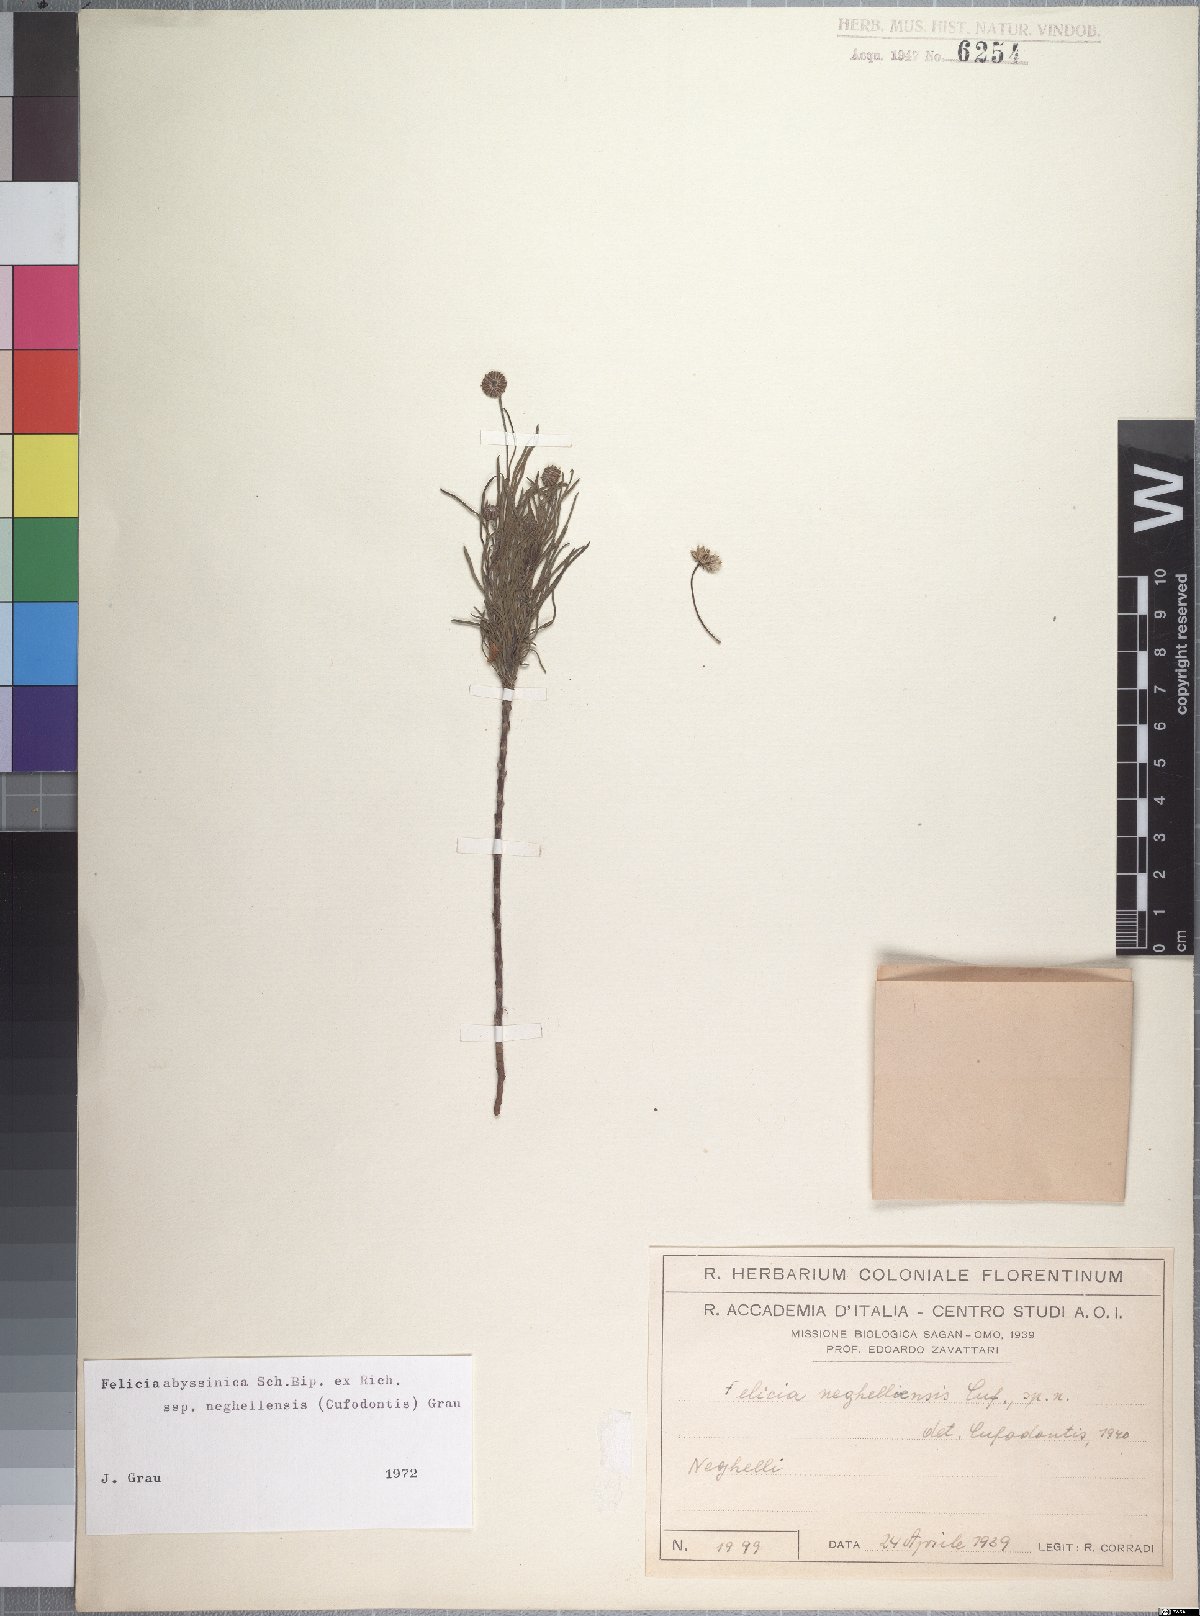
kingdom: Plantae
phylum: Tracheophyta
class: Magnoliopsida
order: Asterales
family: Asteraceae
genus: Felicia
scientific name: Felicia abyssinica
